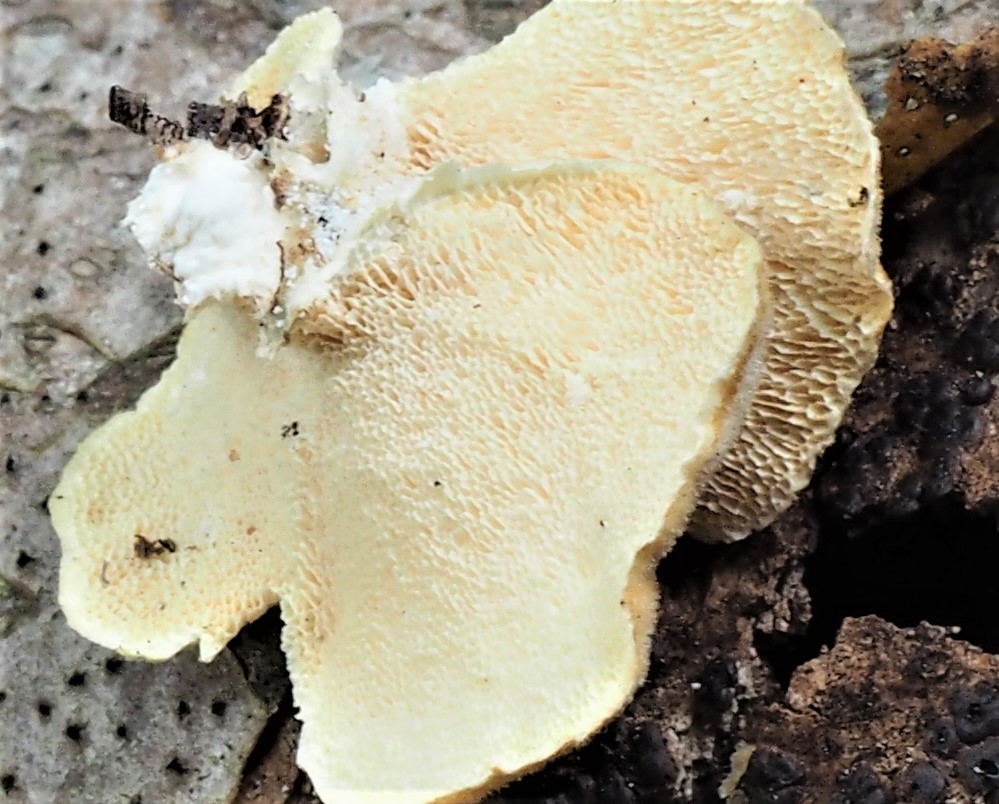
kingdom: Fungi
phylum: Basidiomycota
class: Agaricomycetes
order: Polyporales
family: Polyporaceae
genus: Trametes
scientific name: Trametes
